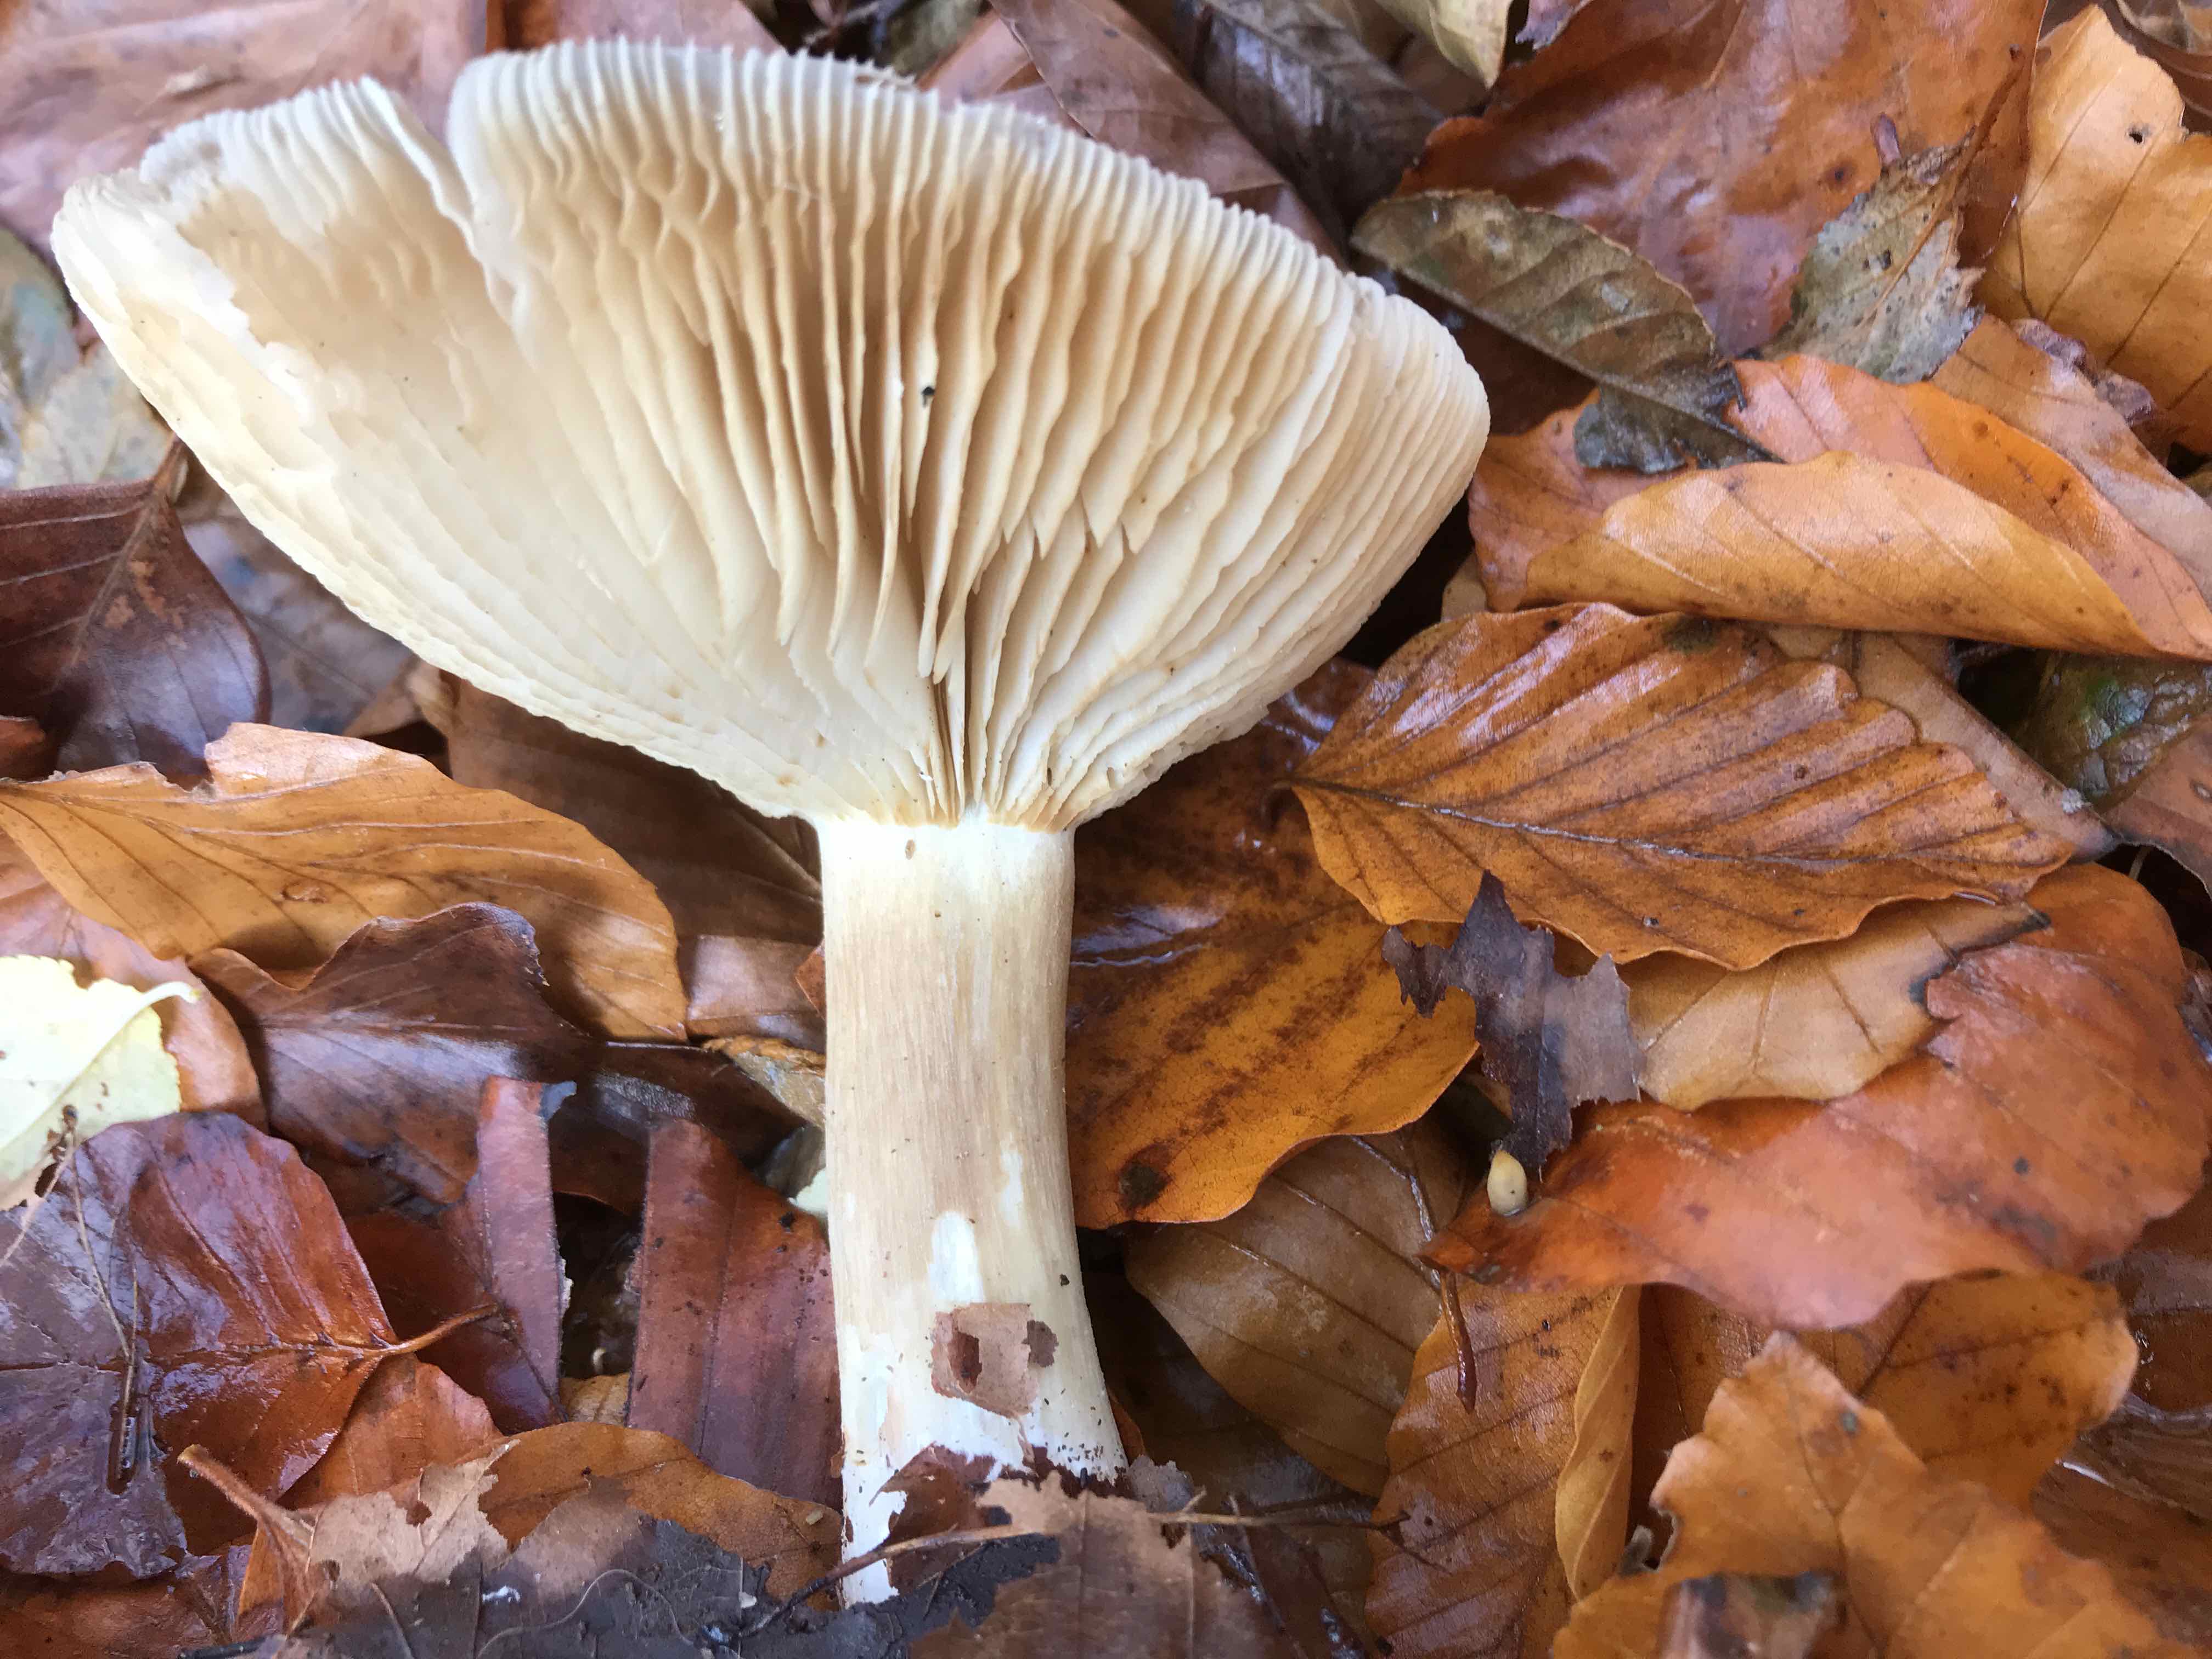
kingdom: Fungi
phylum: Basidiomycota
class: Agaricomycetes
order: Agaricales
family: Tricholomataceae
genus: Megacollybia
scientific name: Megacollybia platyphylla
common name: bredbladet væbnerhat
